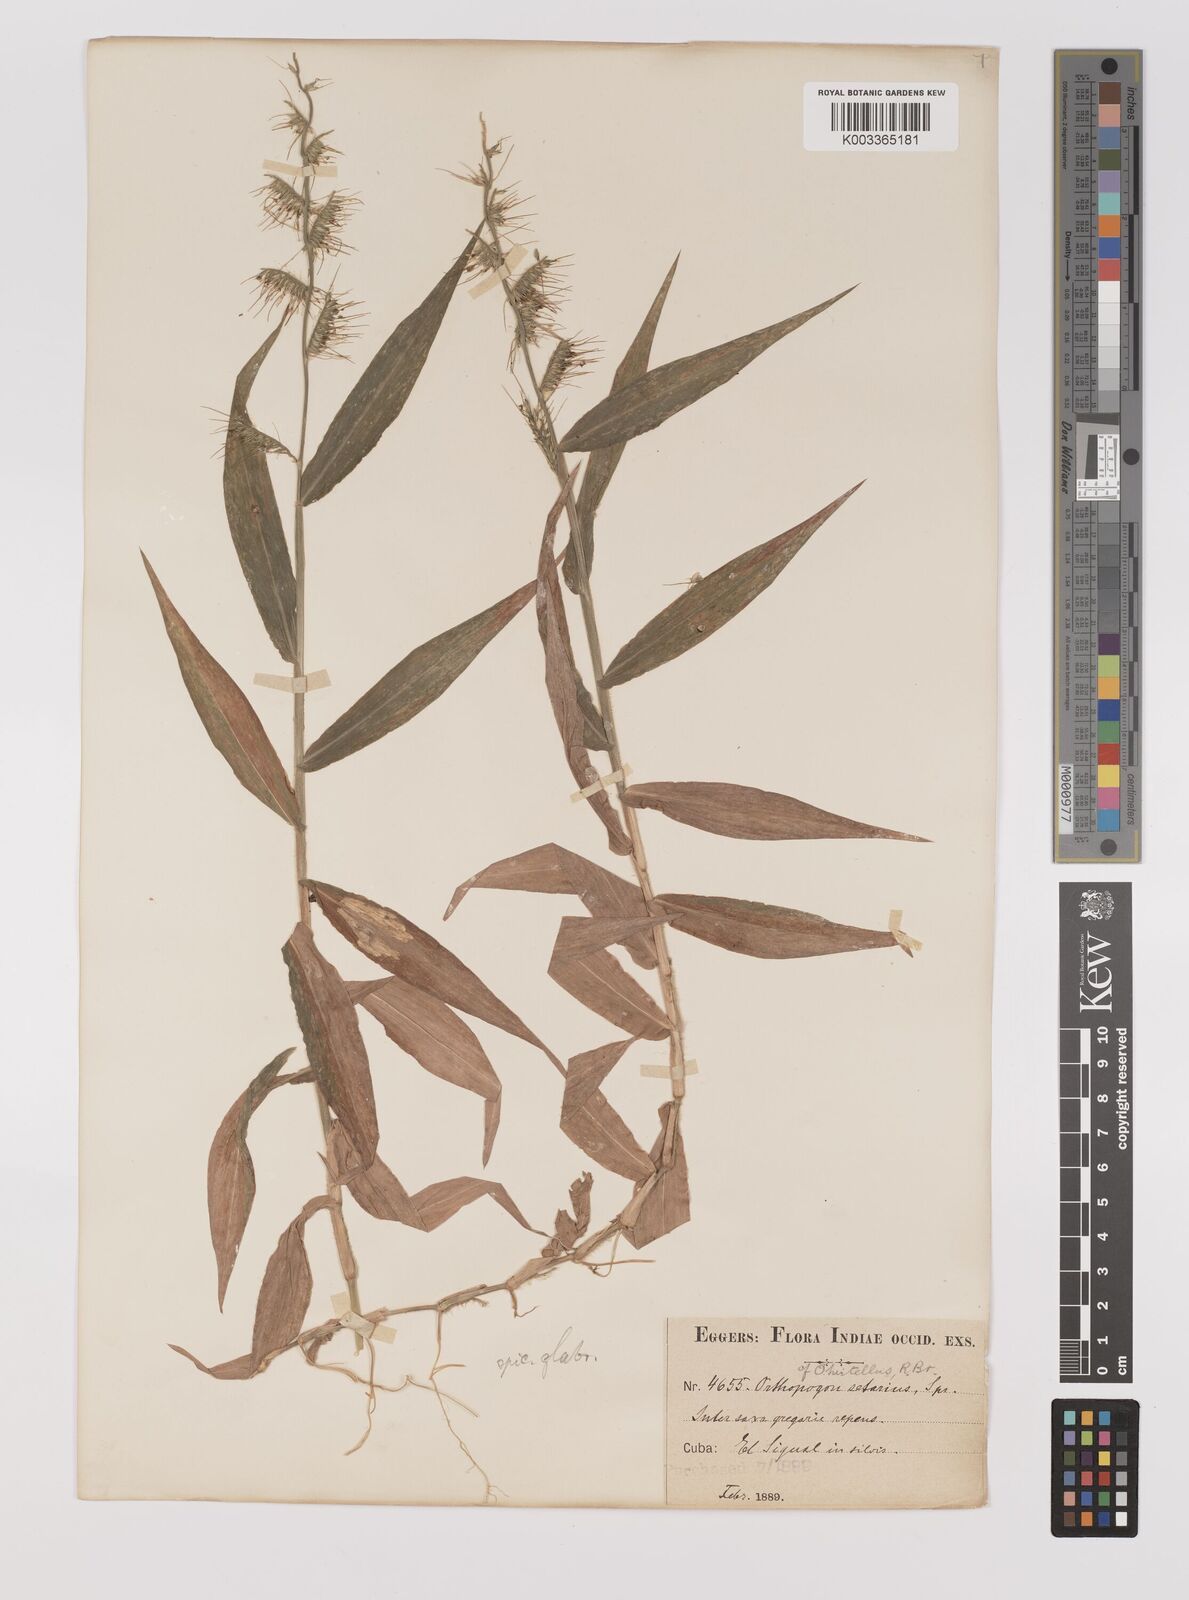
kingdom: Plantae
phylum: Tracheophyta
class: Liliopsida
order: Poales
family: Poaceae
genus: Oplismenus
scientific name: Oplismenus hirtellus
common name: Basketgrass
